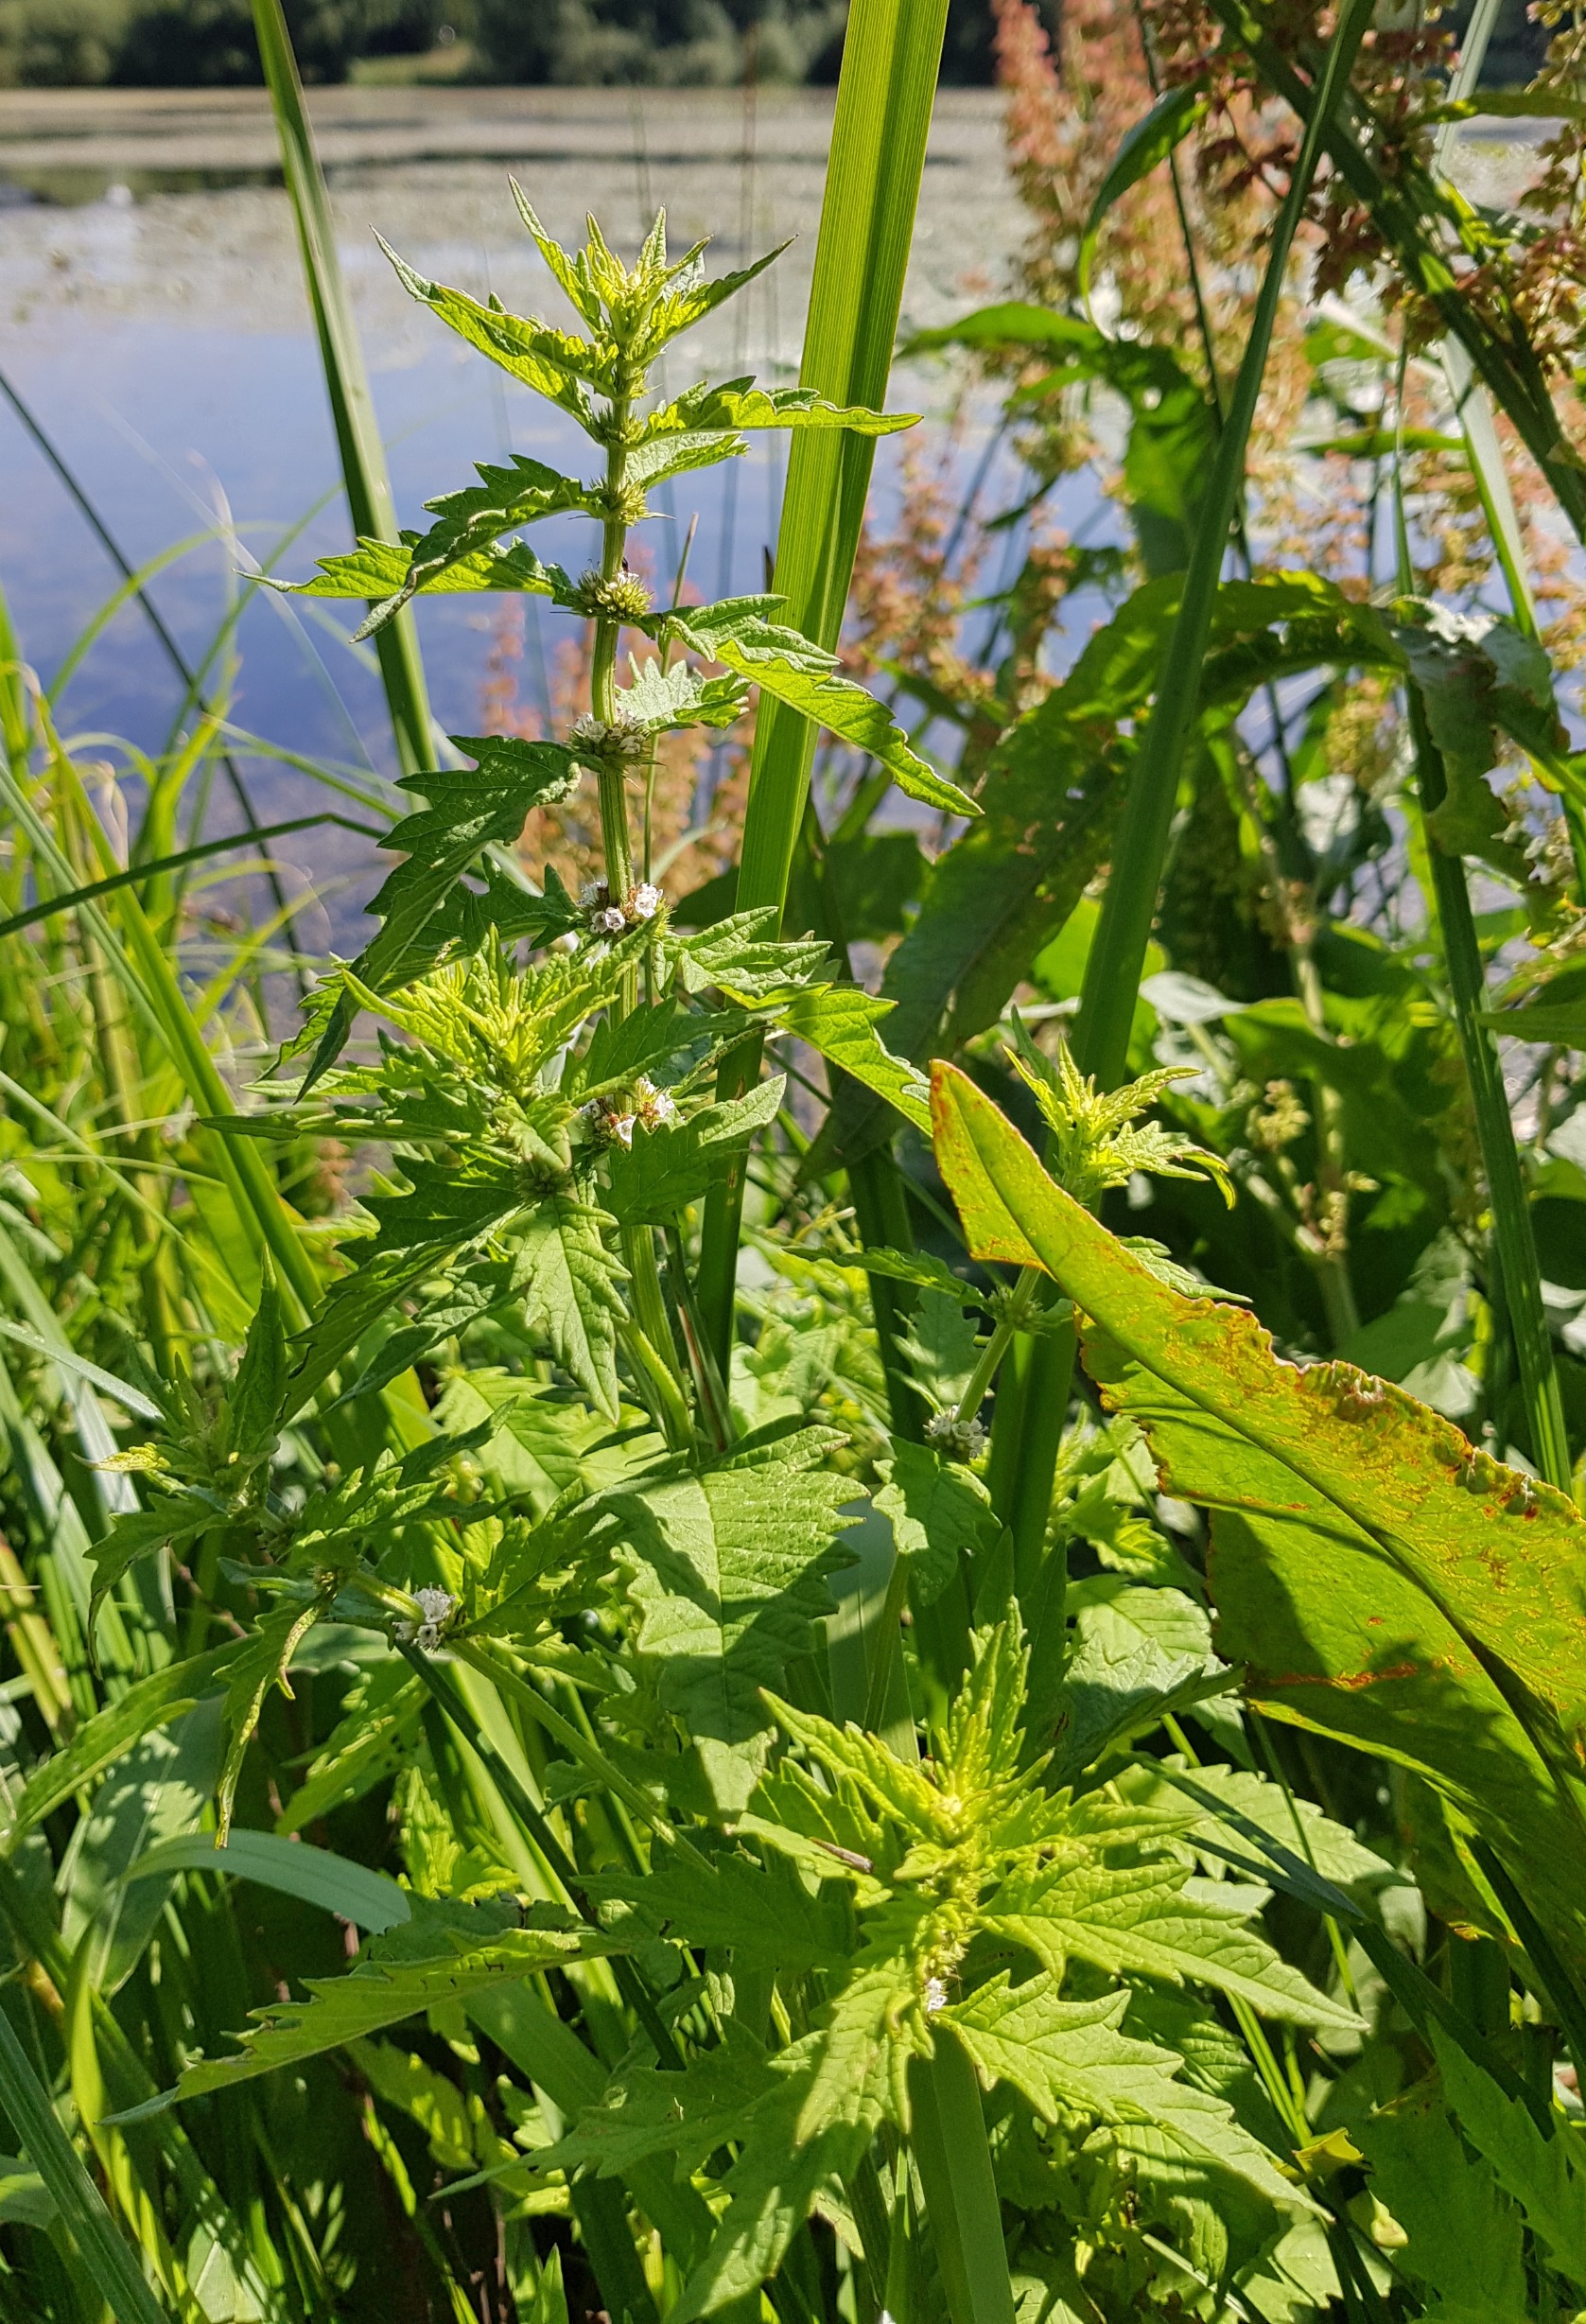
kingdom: Plantae
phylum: Tracheophyta
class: Magnoliopsida
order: Lamiales
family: Lamiaceae
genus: Lycopus
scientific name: Lycopus europaeus
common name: Sværtevæld
